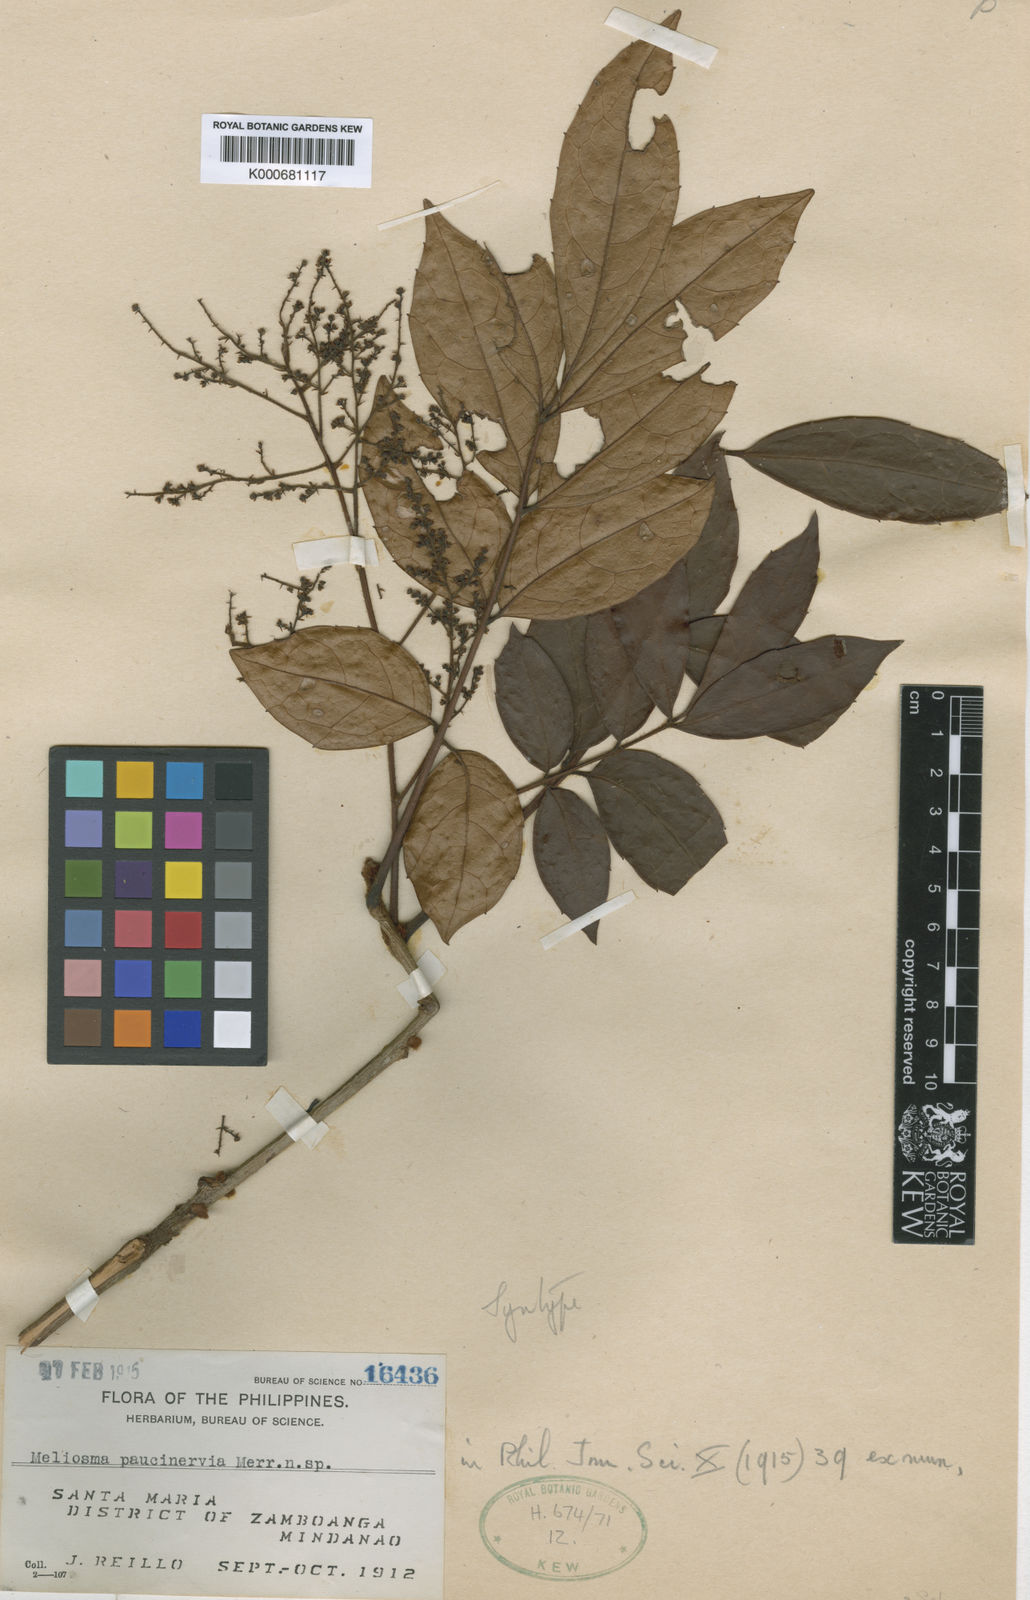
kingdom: Plantae
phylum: Tracheophyta
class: Magnoliopsida
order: Proteales
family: Sabiaceae
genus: Meliosma
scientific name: Meliosma pinnata
